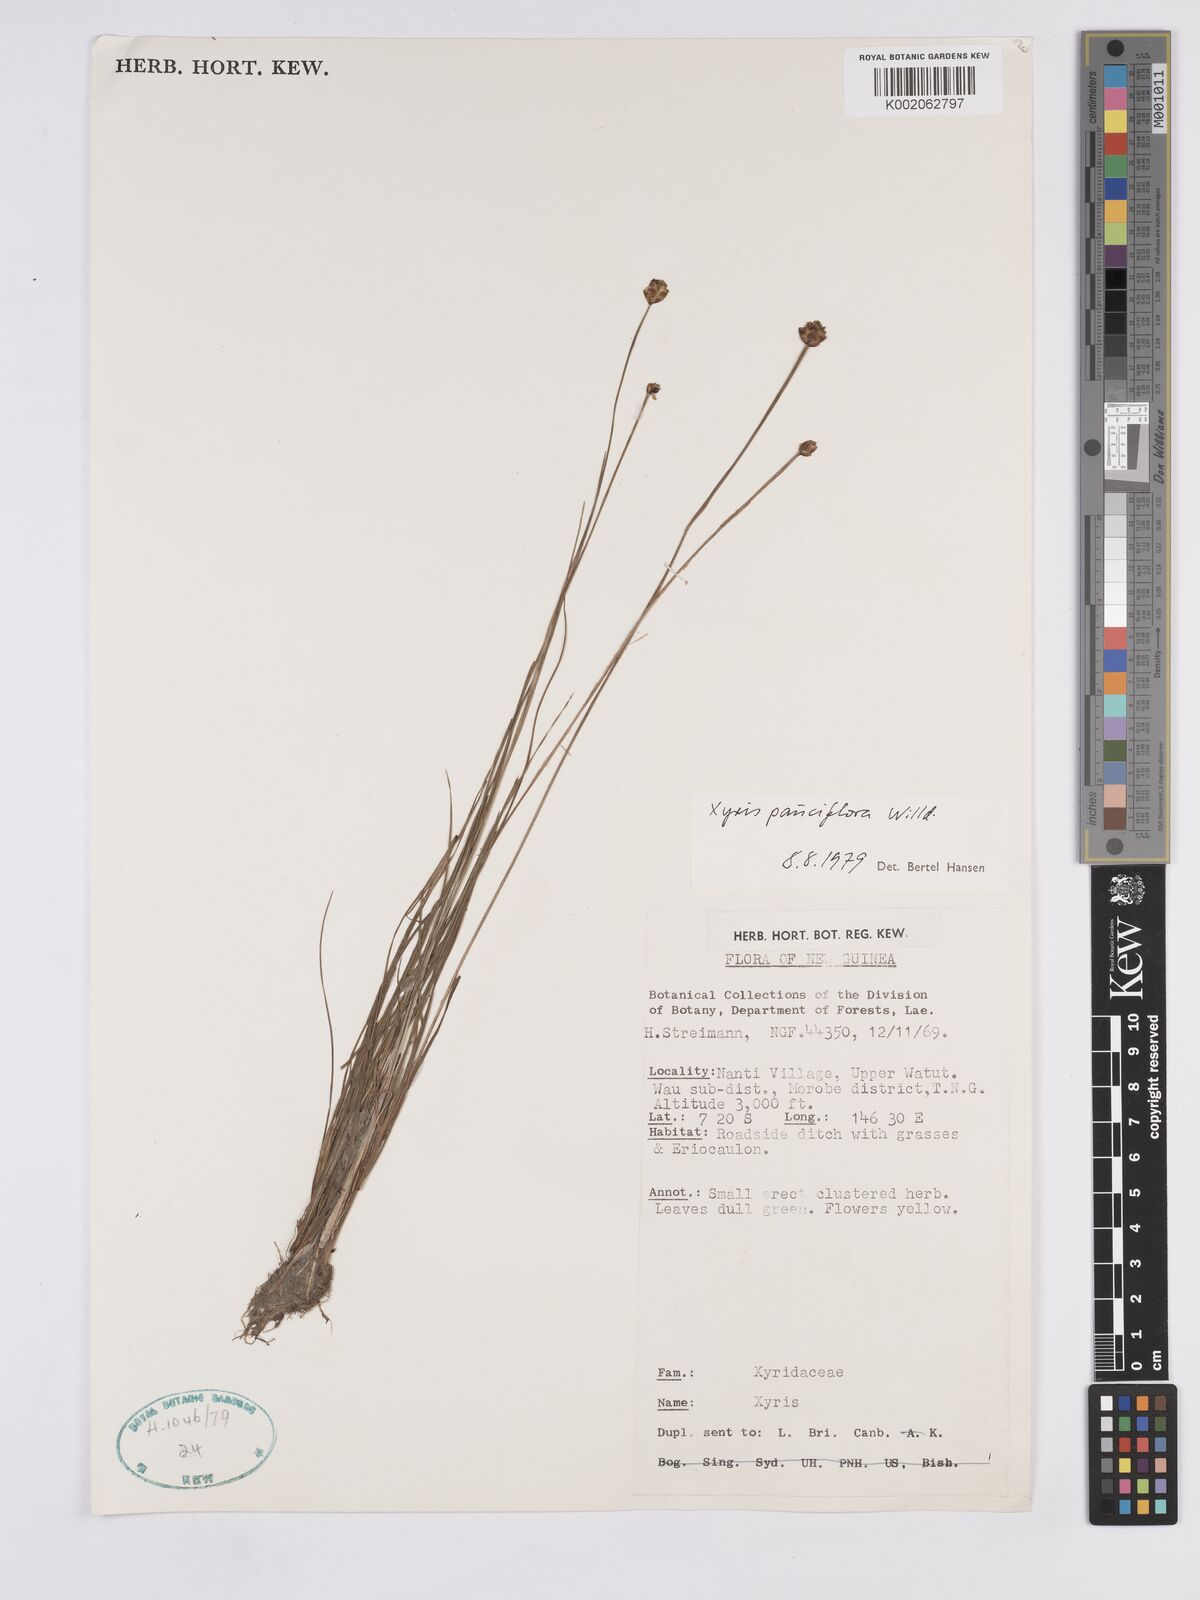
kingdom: Plantae
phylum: Tracheophyta
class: Liliopsida
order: Poales
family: Xyridaceae
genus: Xyris
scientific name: Xyris pauciflora
